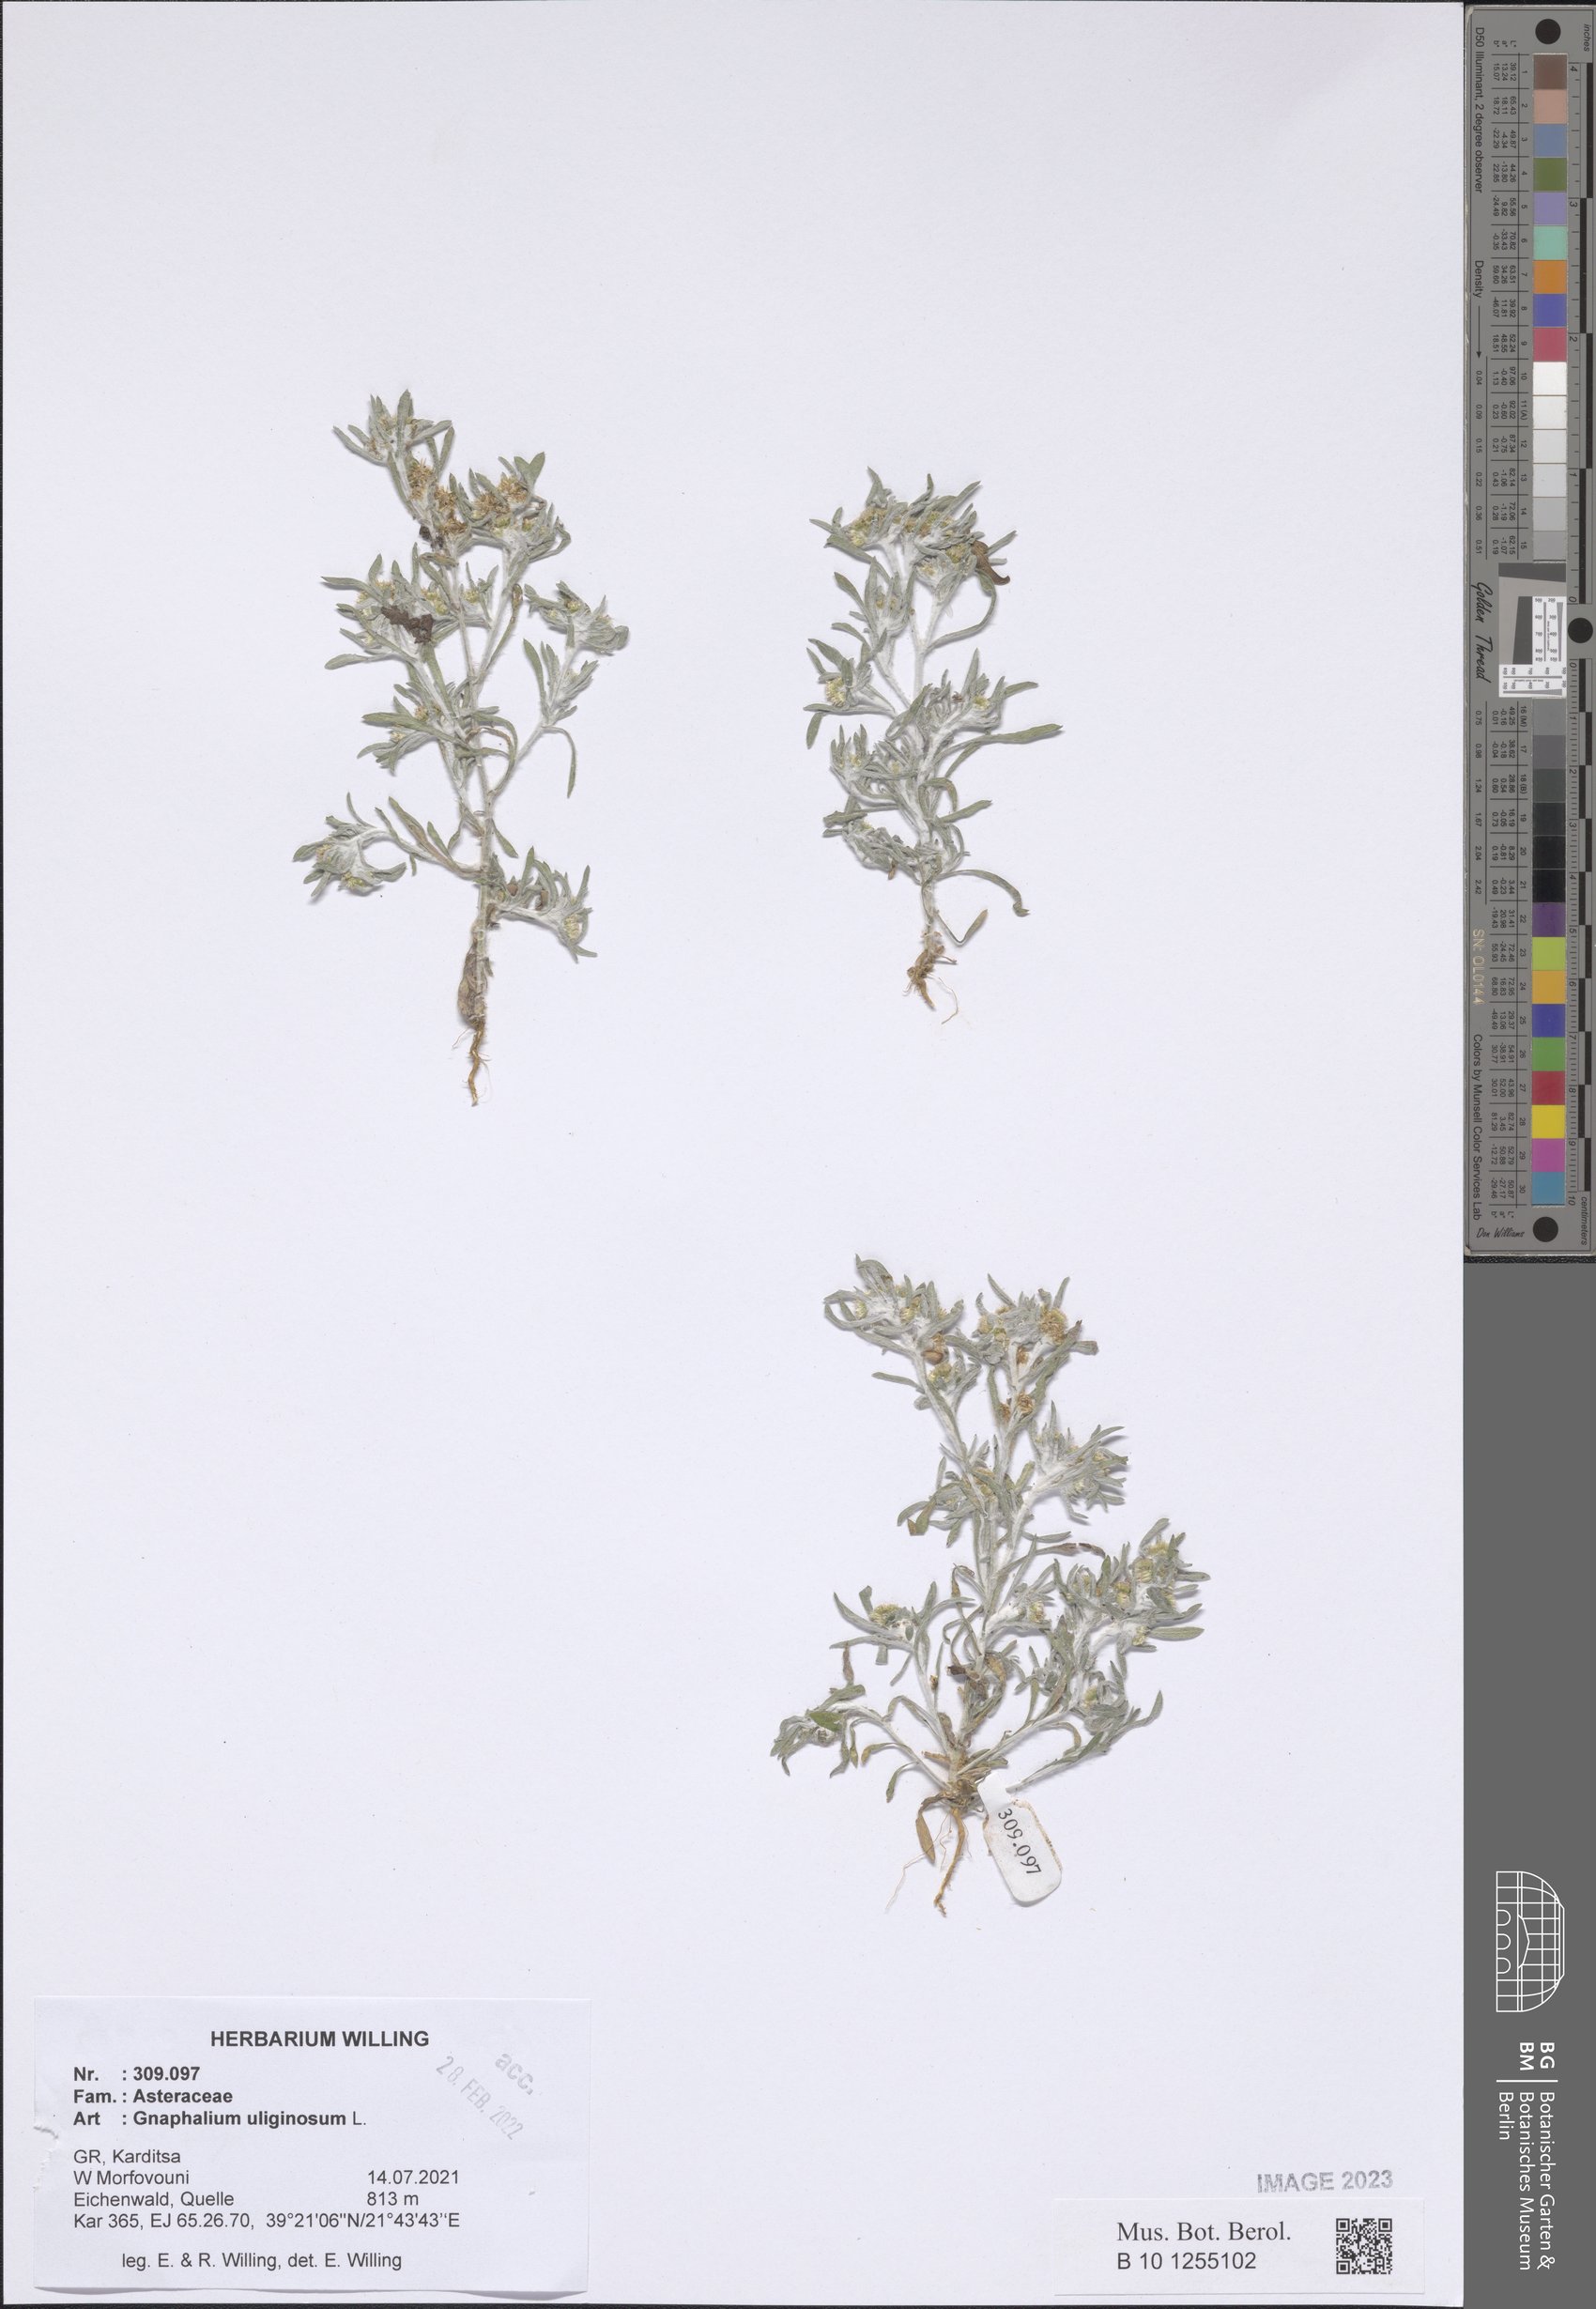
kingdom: Plantae
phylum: Tracheophyta
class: Magnoliopsida
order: Asterales
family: Asteraceae
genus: Gnaphalium
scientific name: Gnaphalium uliginosum
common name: Marsh cudweed
